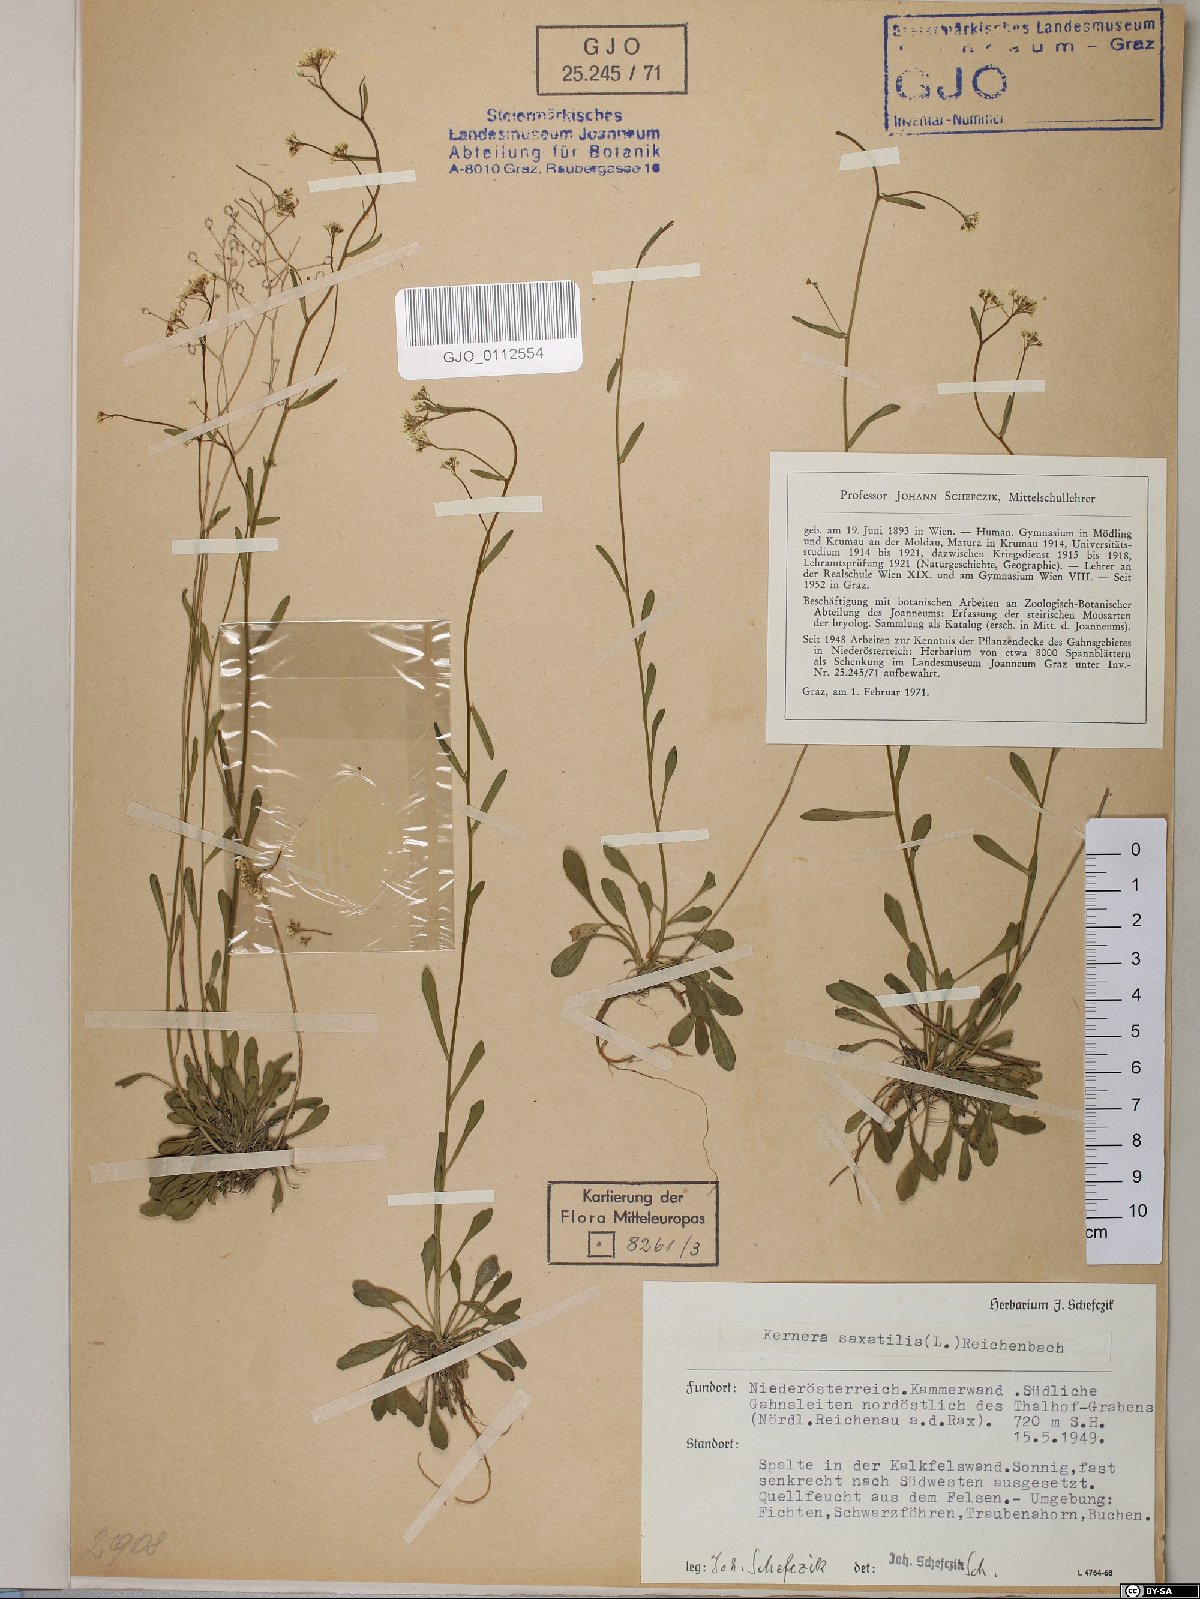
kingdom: Plantae
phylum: Tracheophyta
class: Magnoliopsida
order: Brassicales
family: Brassicaceae
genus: Kernera
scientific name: Kernera saxatilis
